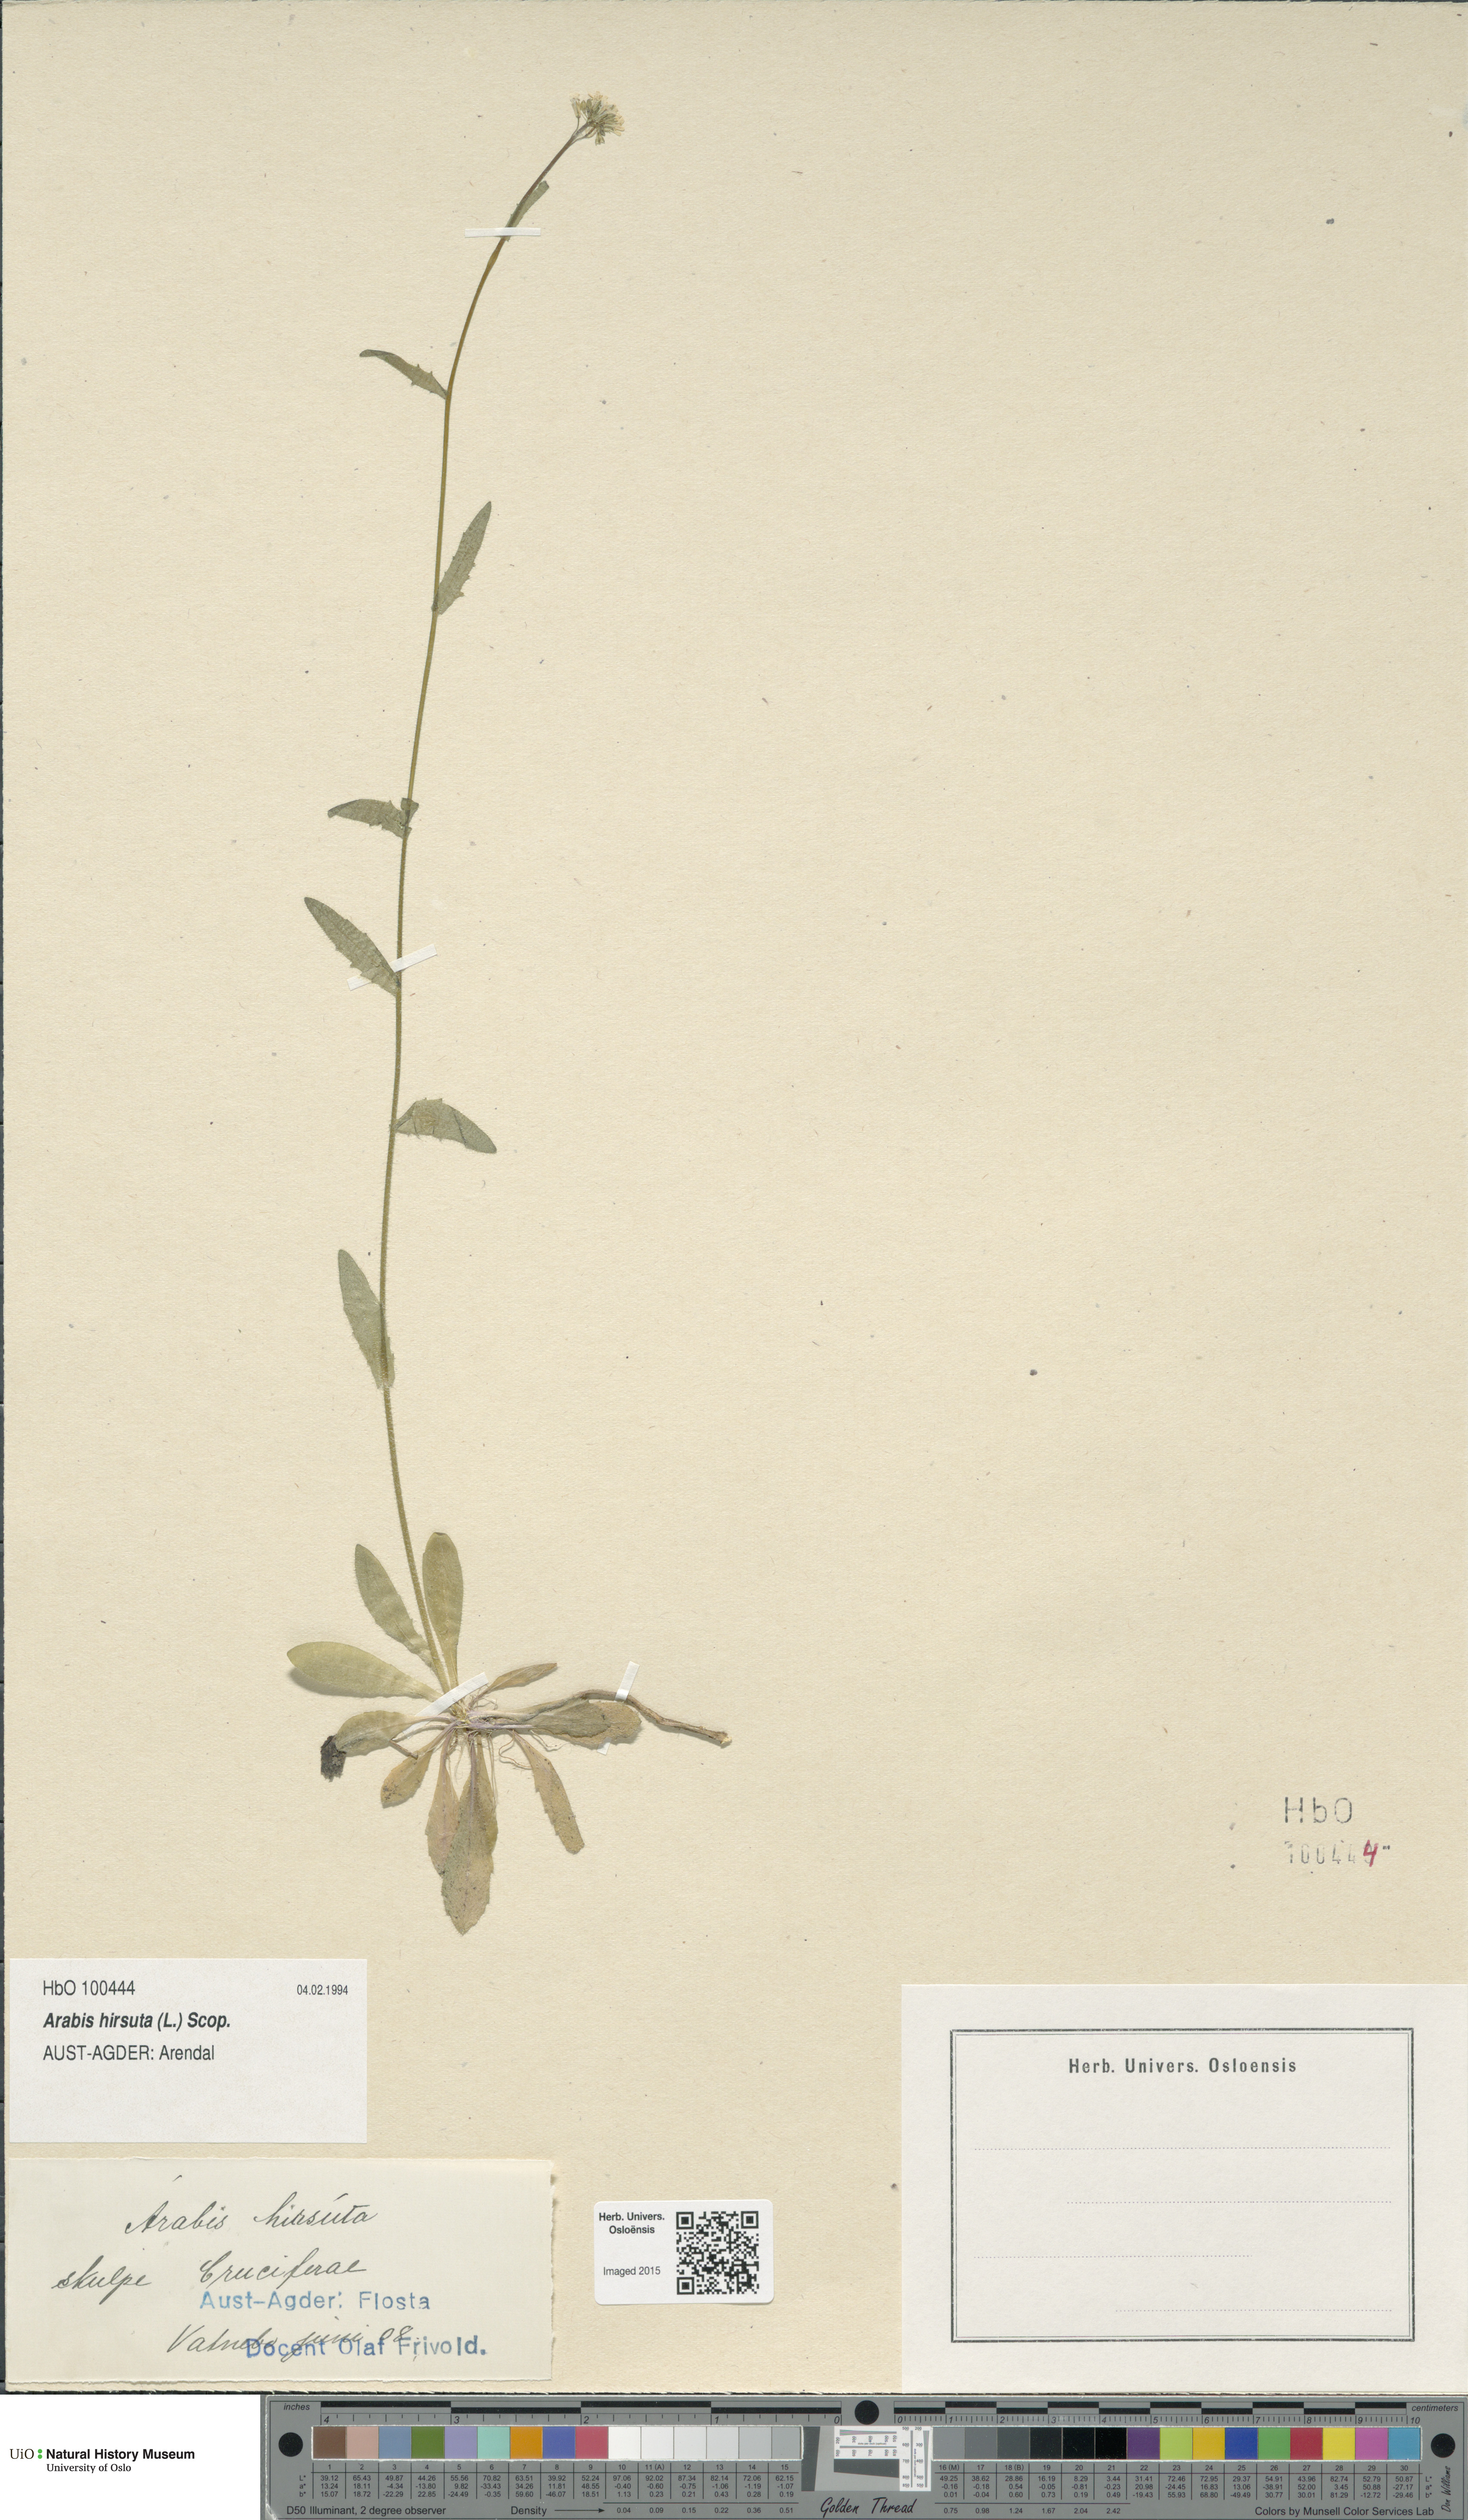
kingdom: Plantae
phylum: Tracheophyta
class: Magnoliopsida
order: Brassicales
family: Brassicaceae
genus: Arabis
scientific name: Arabis hirsuta
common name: Hairy rock-cress
